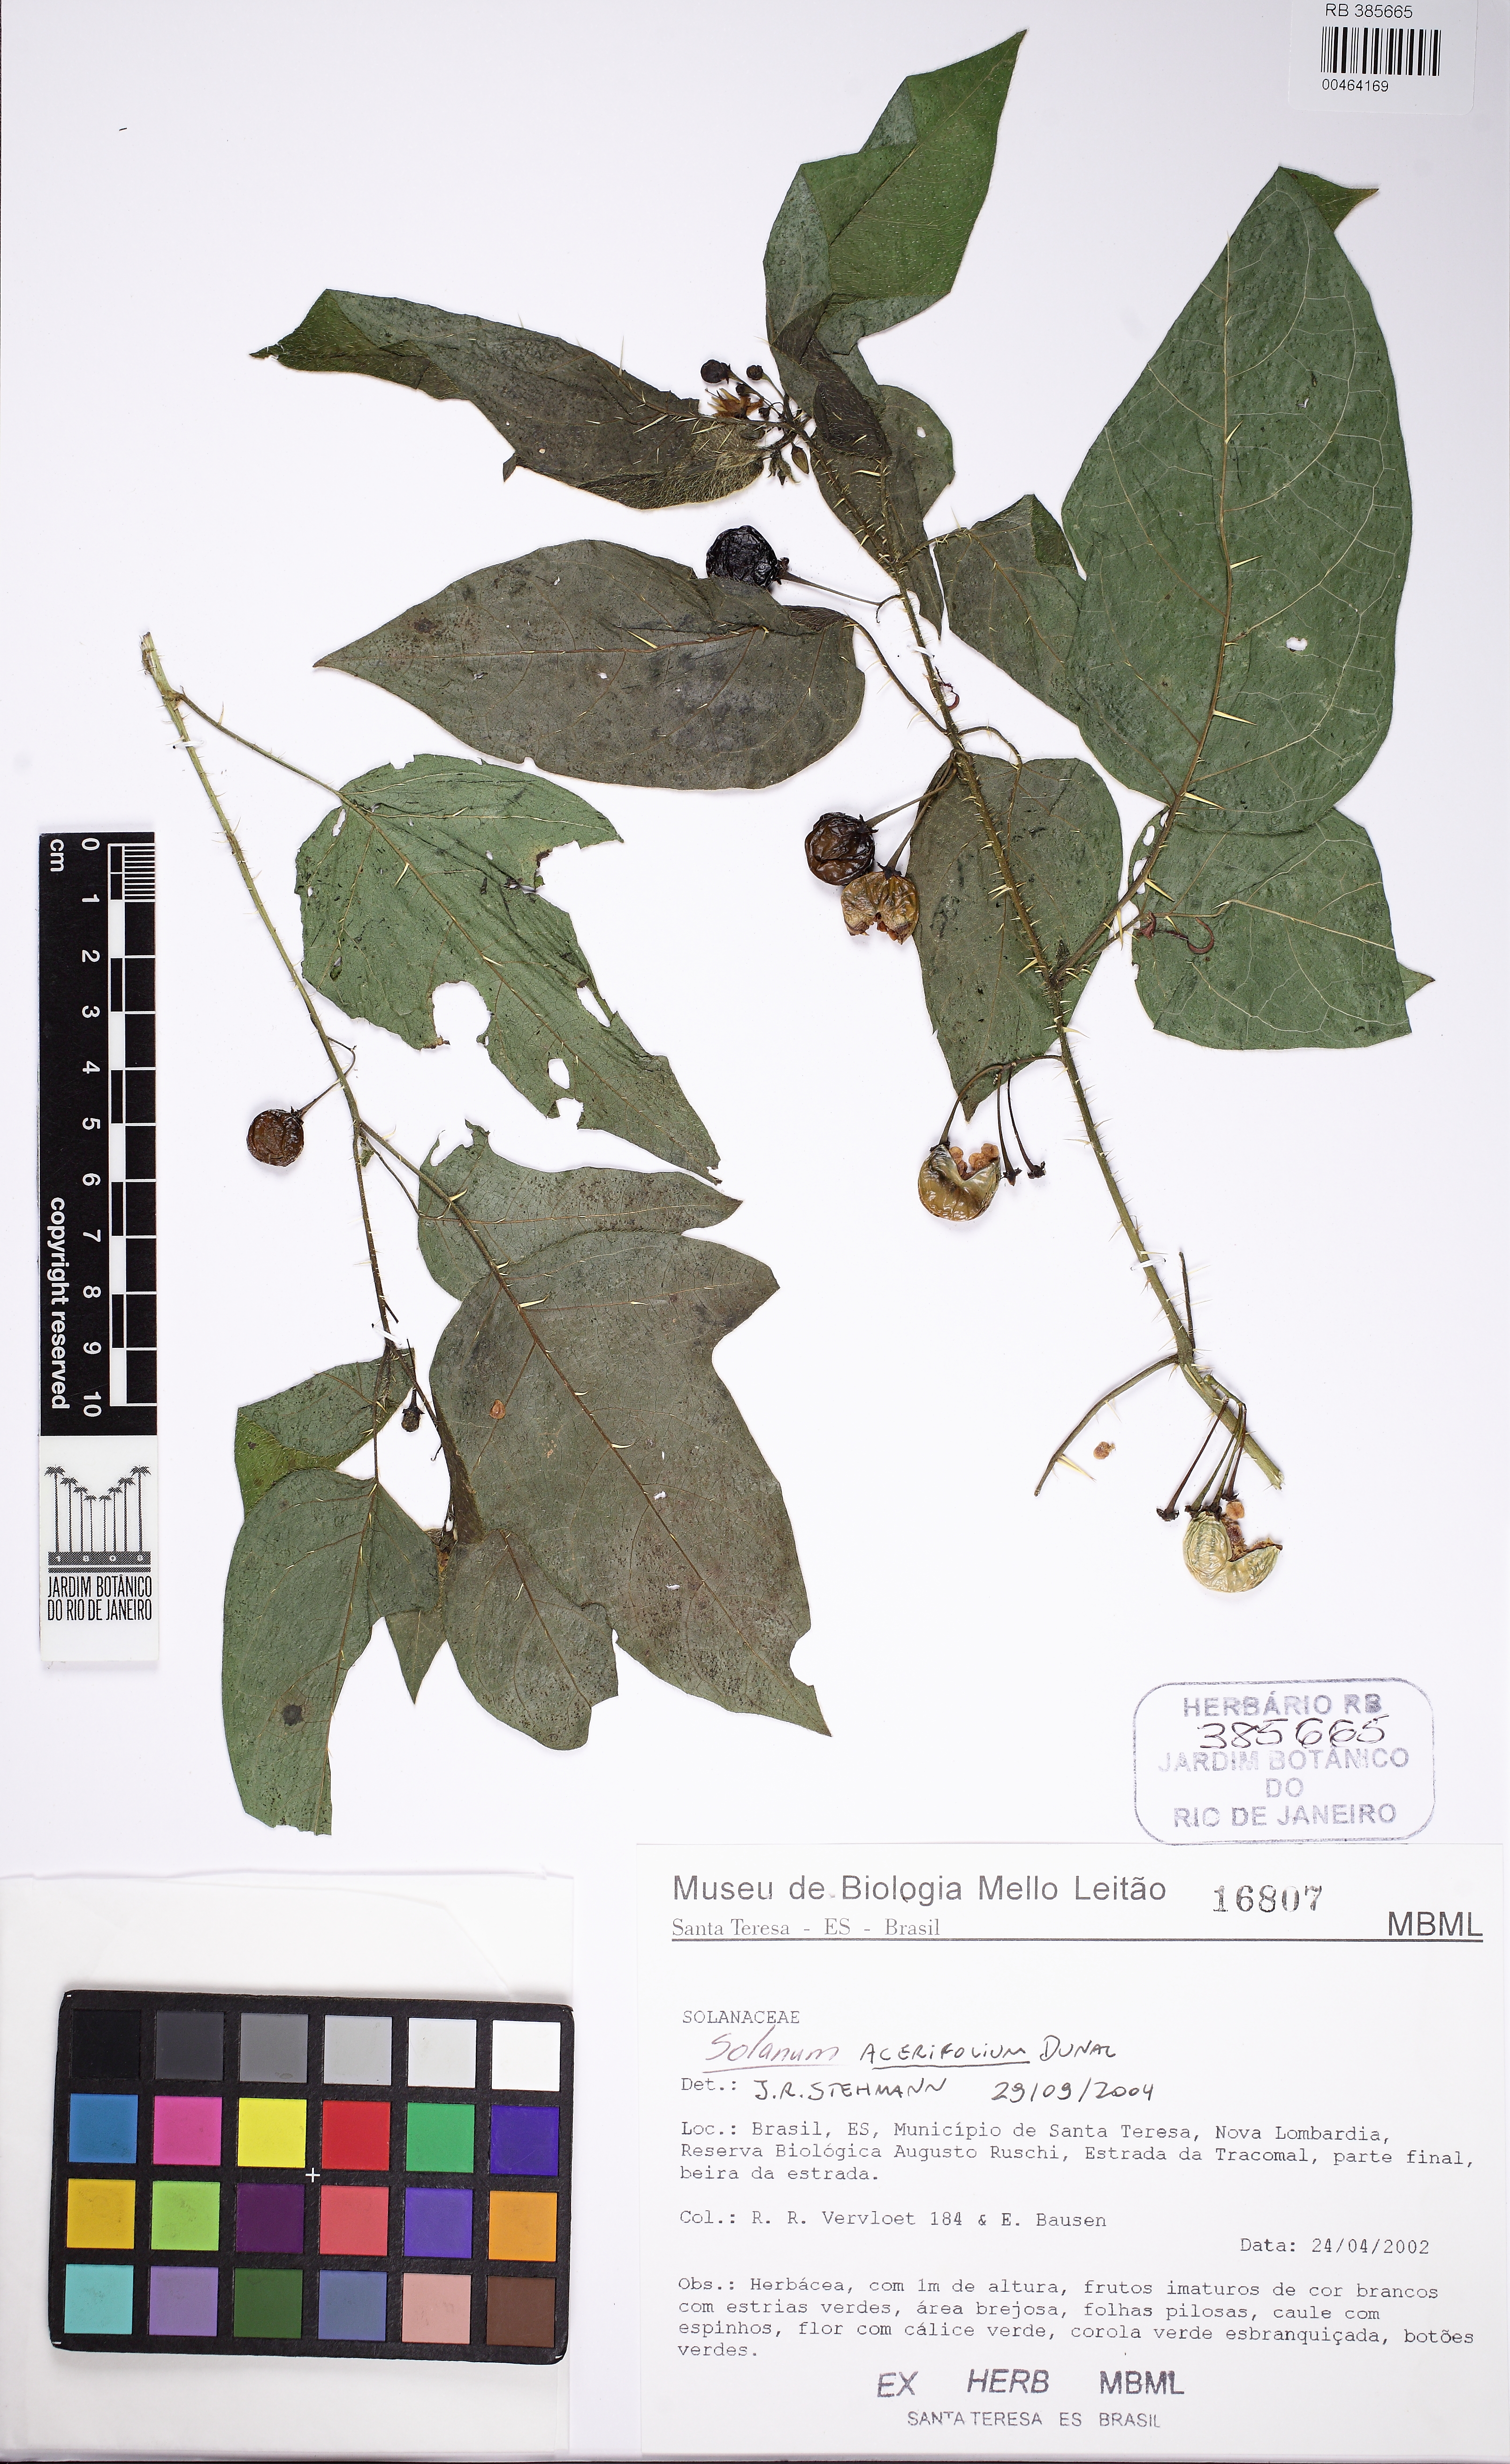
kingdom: Plantae
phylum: Tracheophyta
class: Magnoliopsida
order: Solanales
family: Solanaceae
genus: Solanum
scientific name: Solanum acerifolium
